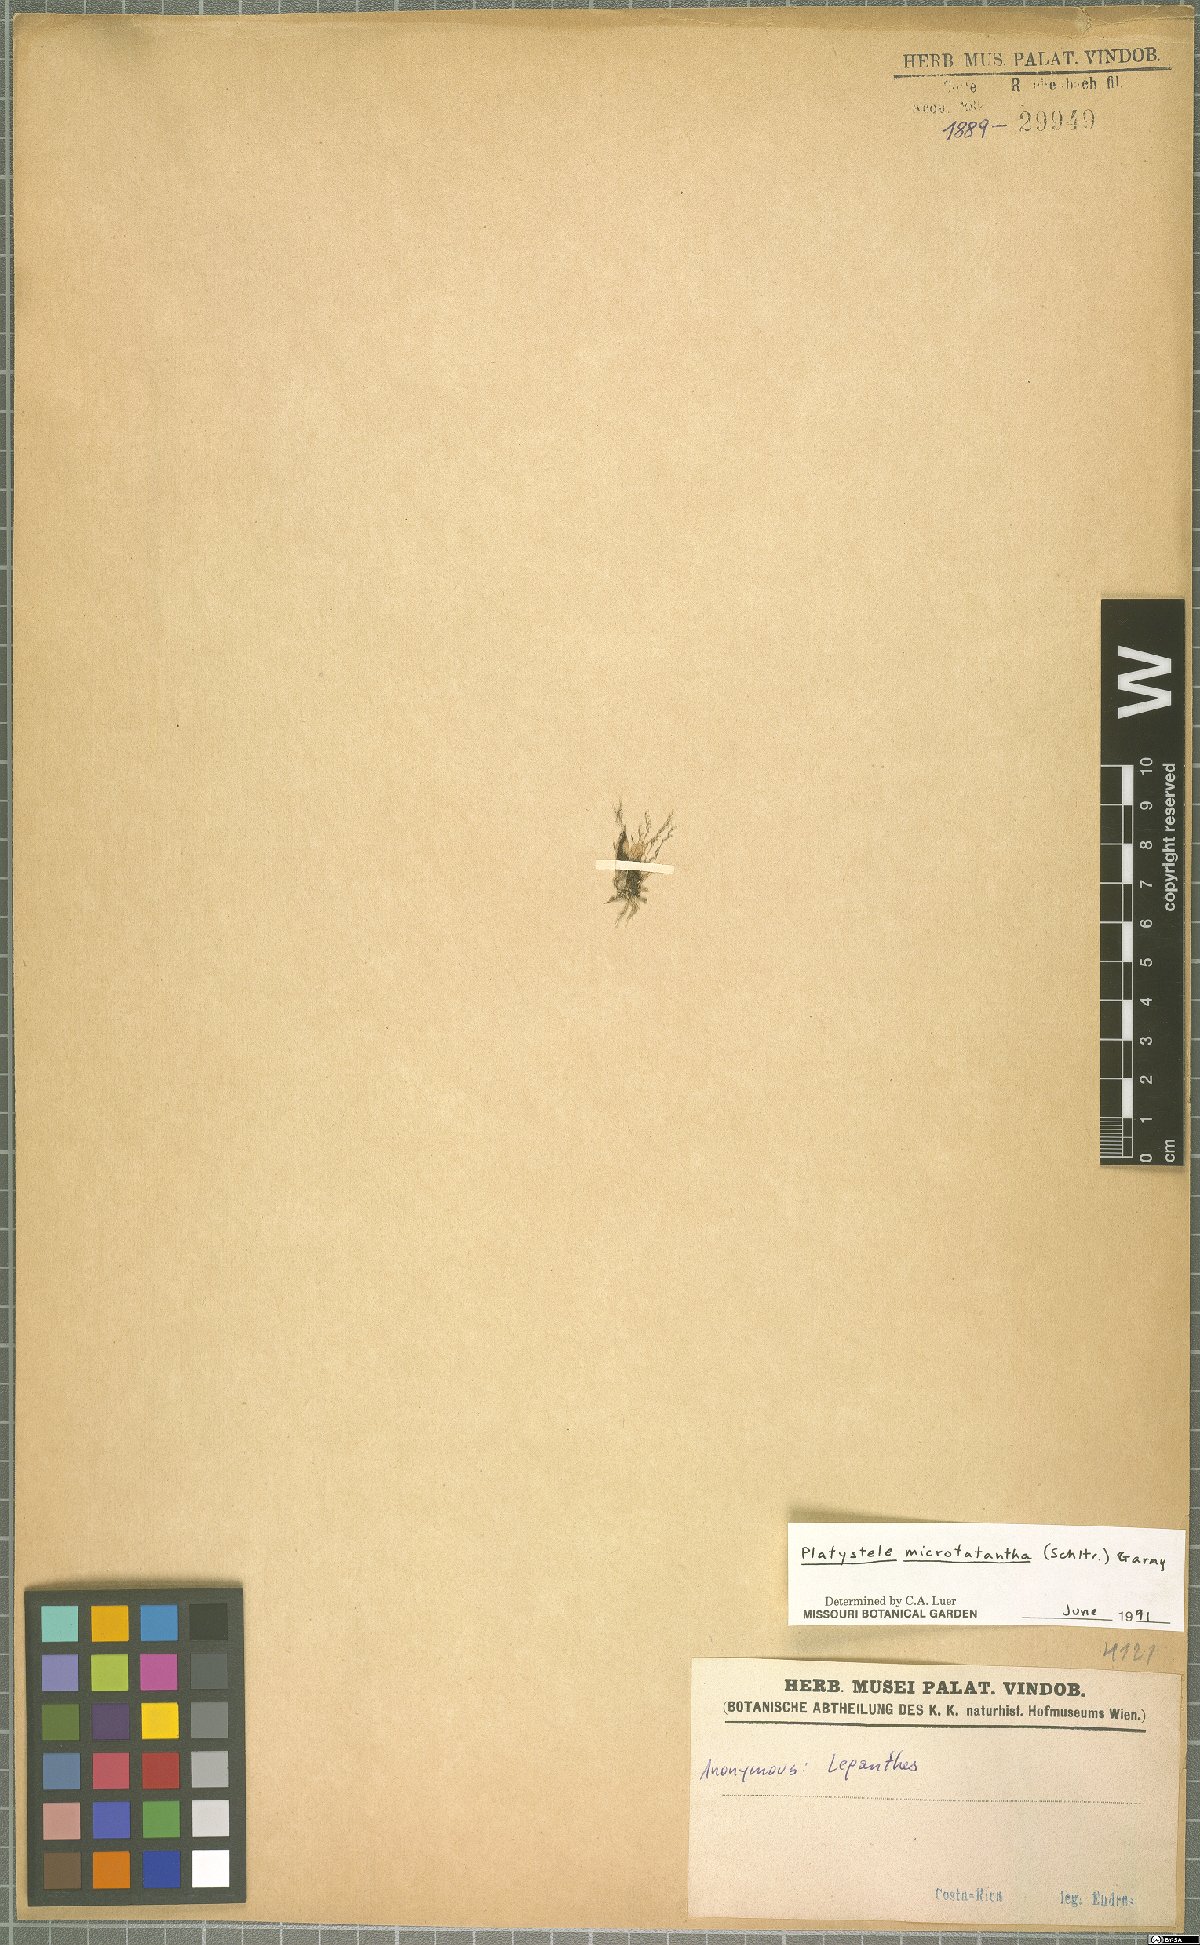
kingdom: Plantae
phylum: Tracheophyta
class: Liliopsida
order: Asparagales
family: Orchidaceae
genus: Platystele
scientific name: Platystele microtatantha
